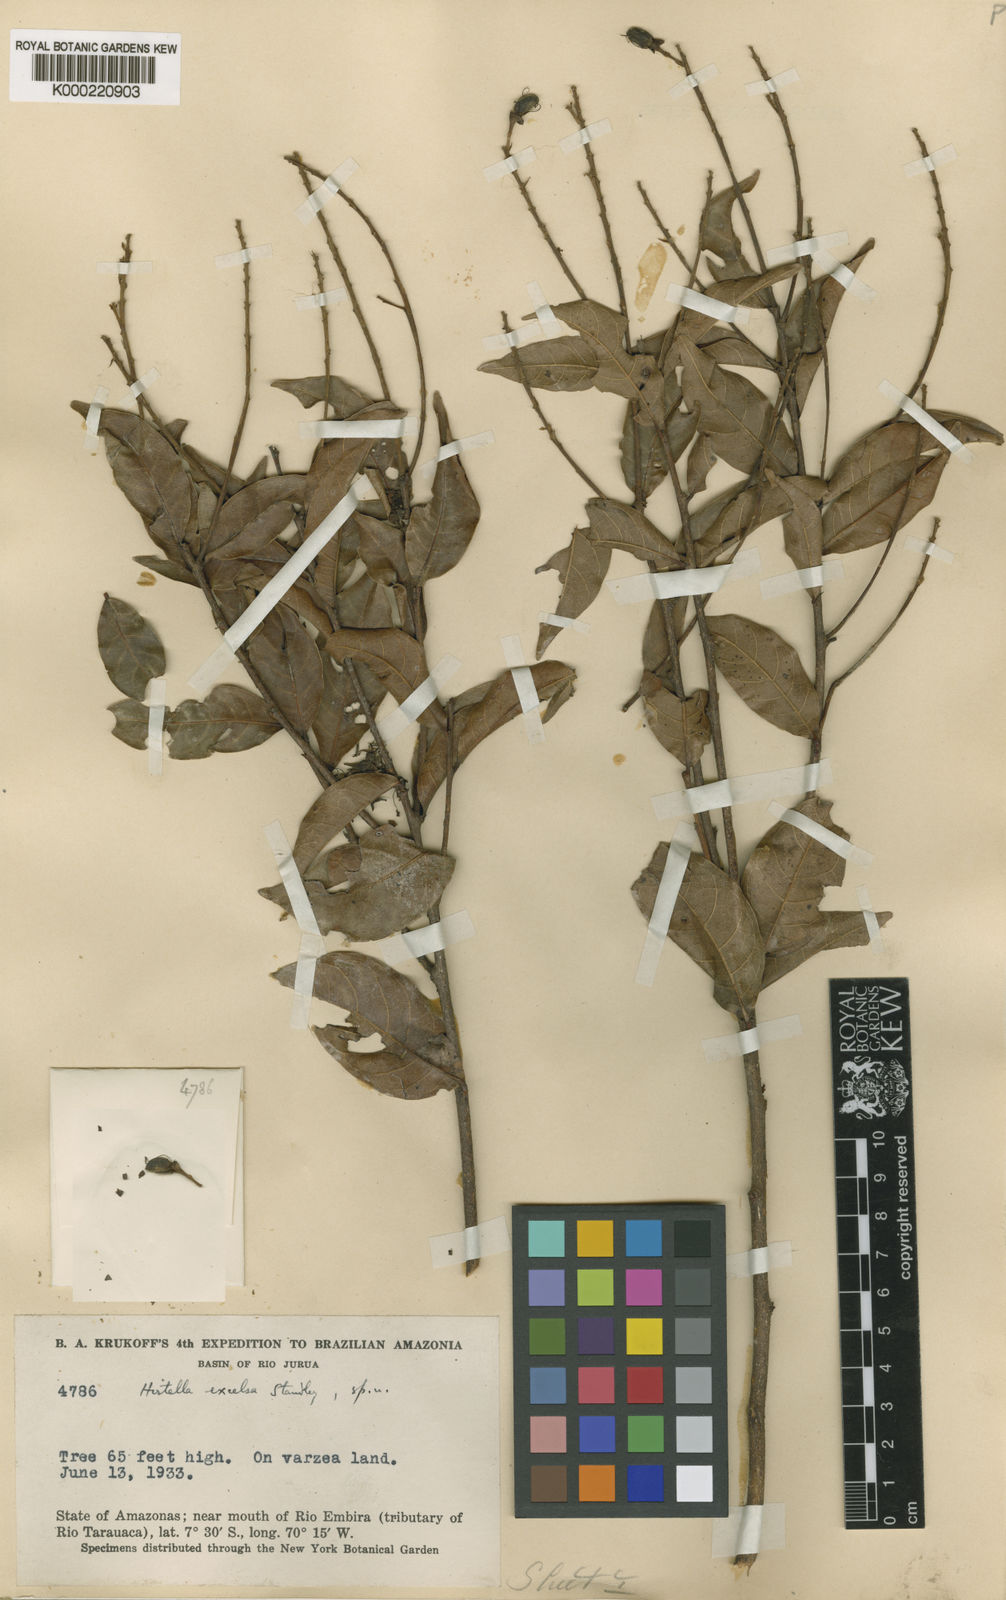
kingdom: Plantae
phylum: Tracheophyta
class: Magnoliopsida
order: Malpighiales
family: Chrysobalanaceae
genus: Hirtella
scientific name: Hirtella excelsa
